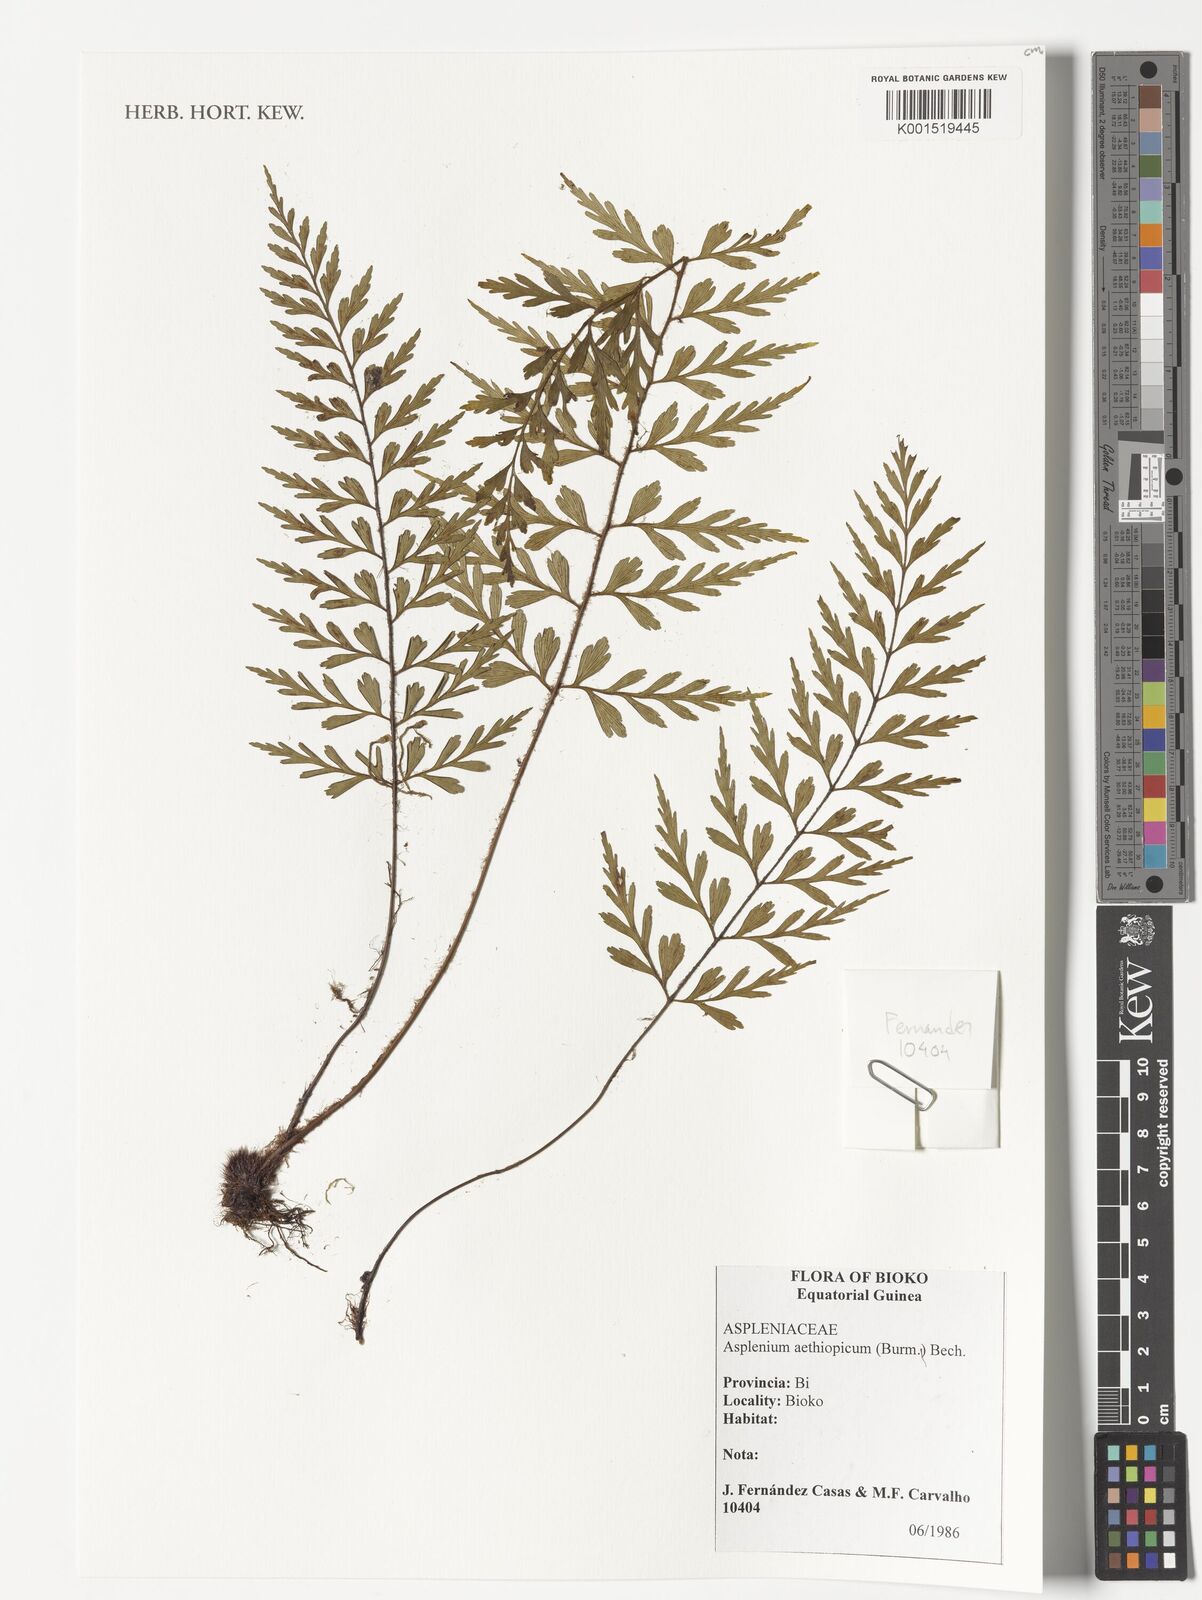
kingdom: Plantae
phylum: Tracheophyta
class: Polypodiopsida
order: Polypodiales
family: Aspleniaceae
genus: Asplenium
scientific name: Asplenium aethiopicum
